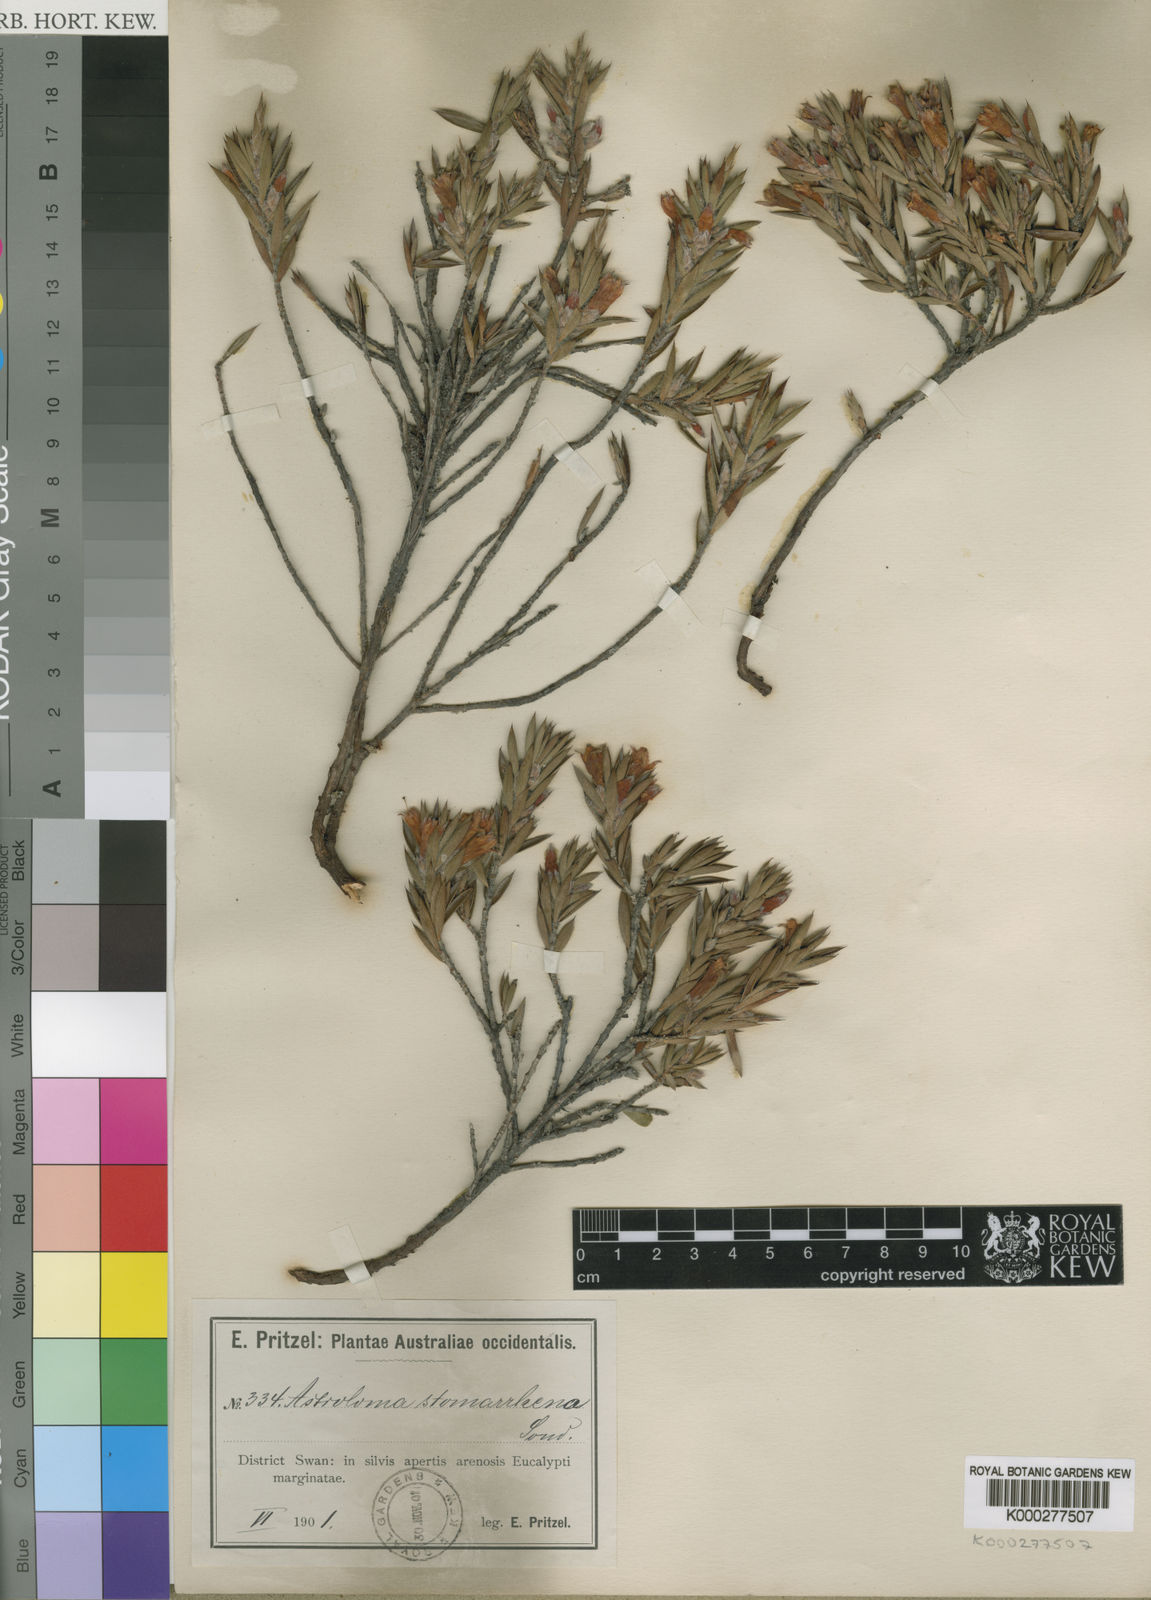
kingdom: Plantae
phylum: Tracheophyta
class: Magnoliopsida
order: Ericales
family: Ericaceae
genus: Styphelia
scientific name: Styphelia stomarrhena
